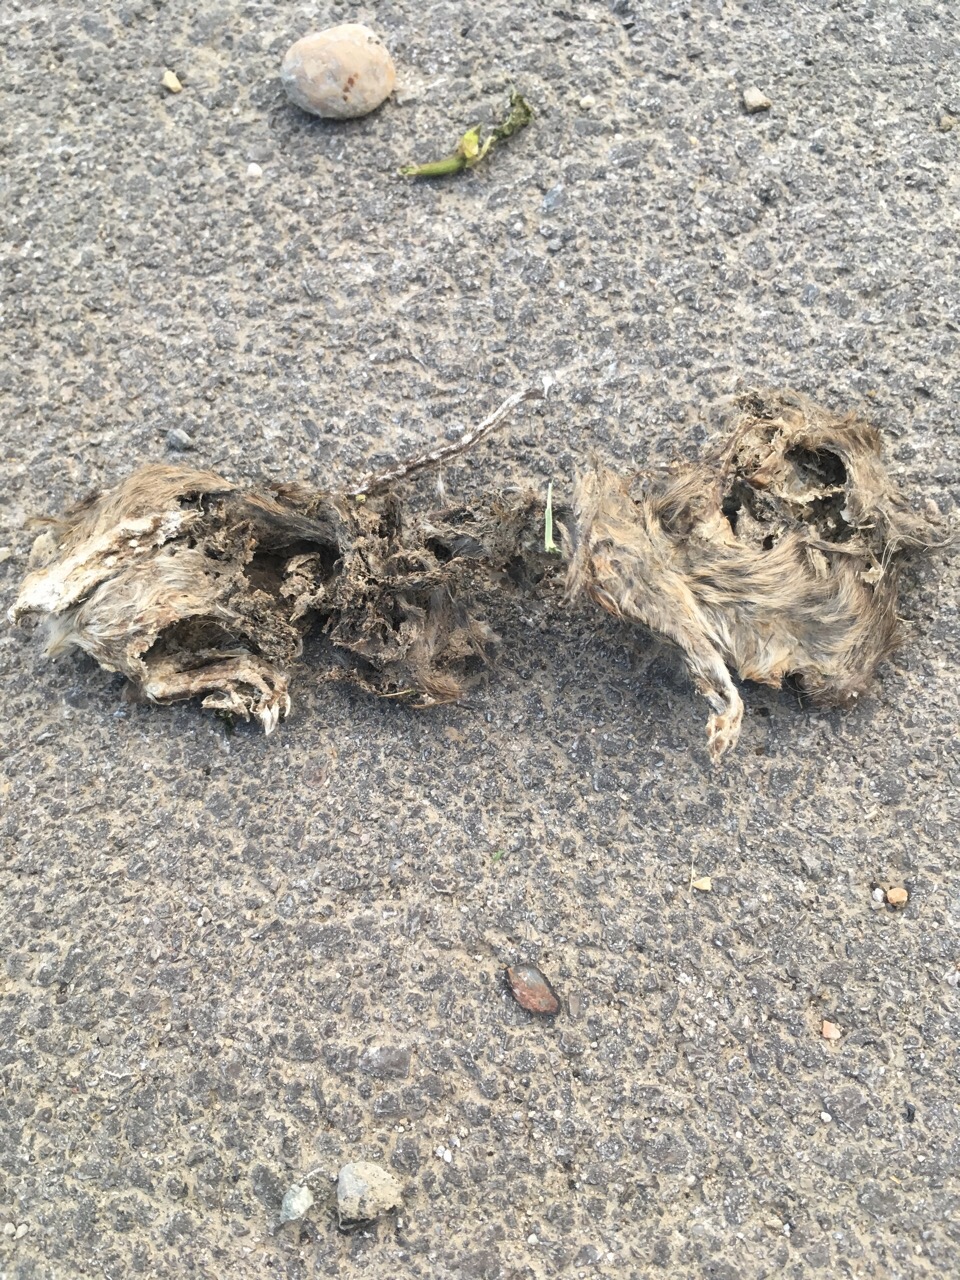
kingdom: Animalia
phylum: Chordata
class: Mammalia
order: Rodentia
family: Muridae
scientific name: Muridae
